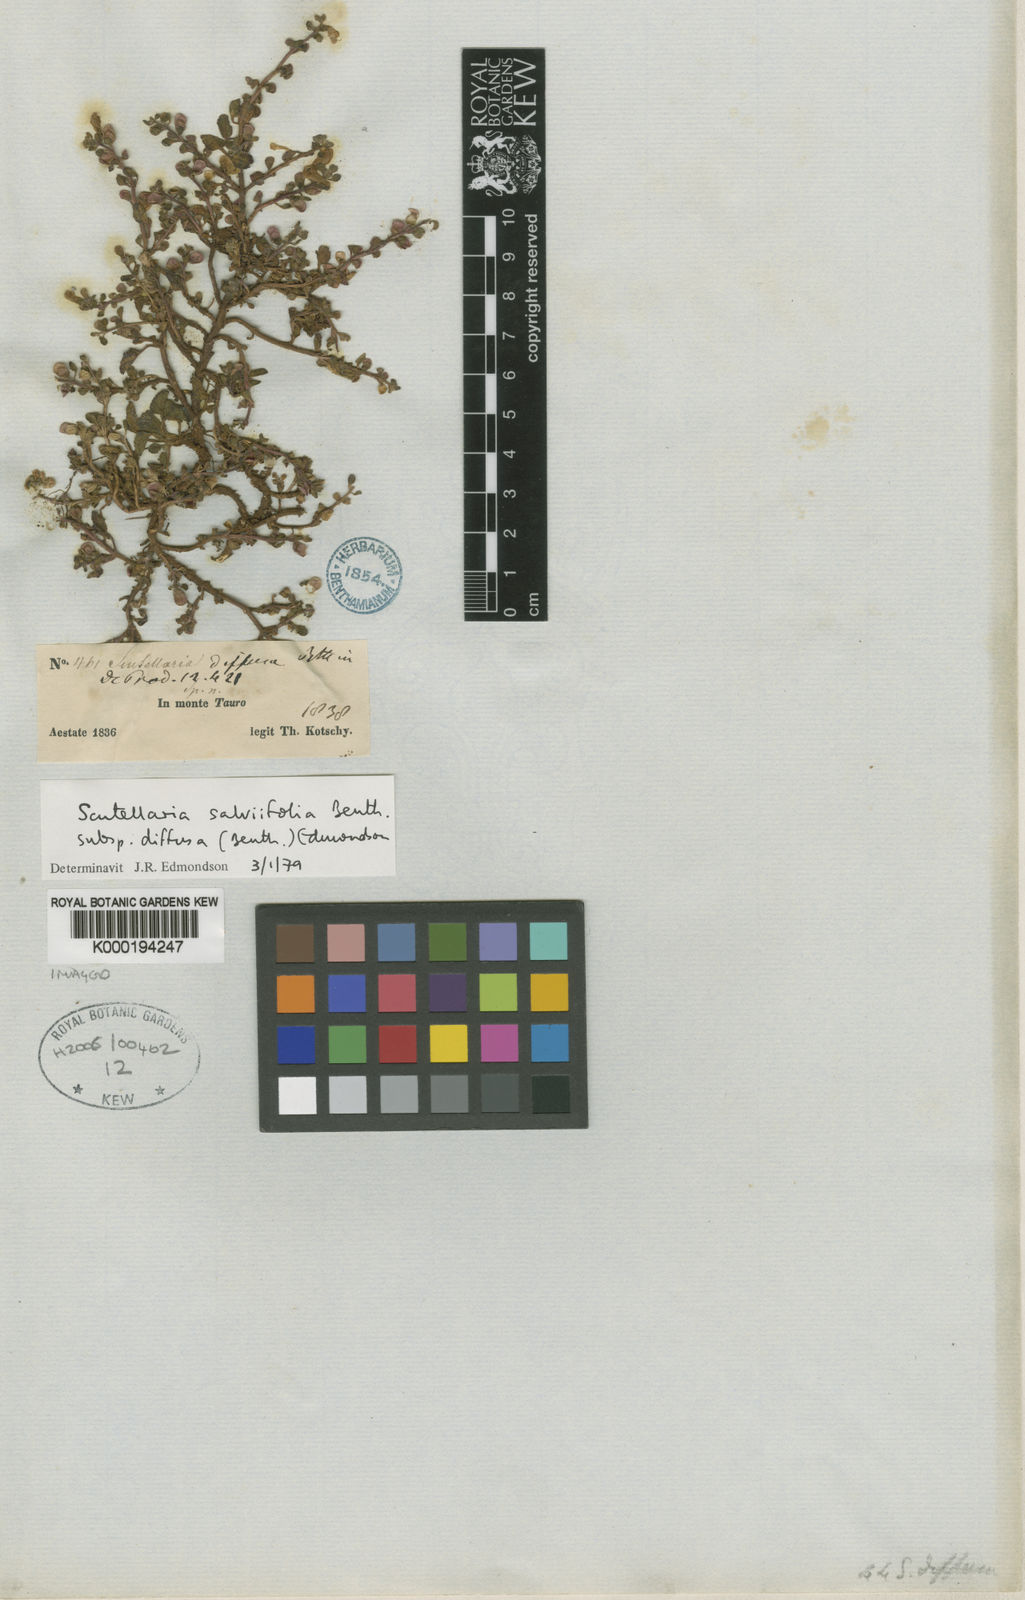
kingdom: Plantae
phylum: Tracheophyta
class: Magnoliopsida
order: Lamiales
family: Lamiaceae
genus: Scutellaria
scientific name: Scutellaria diffusa
